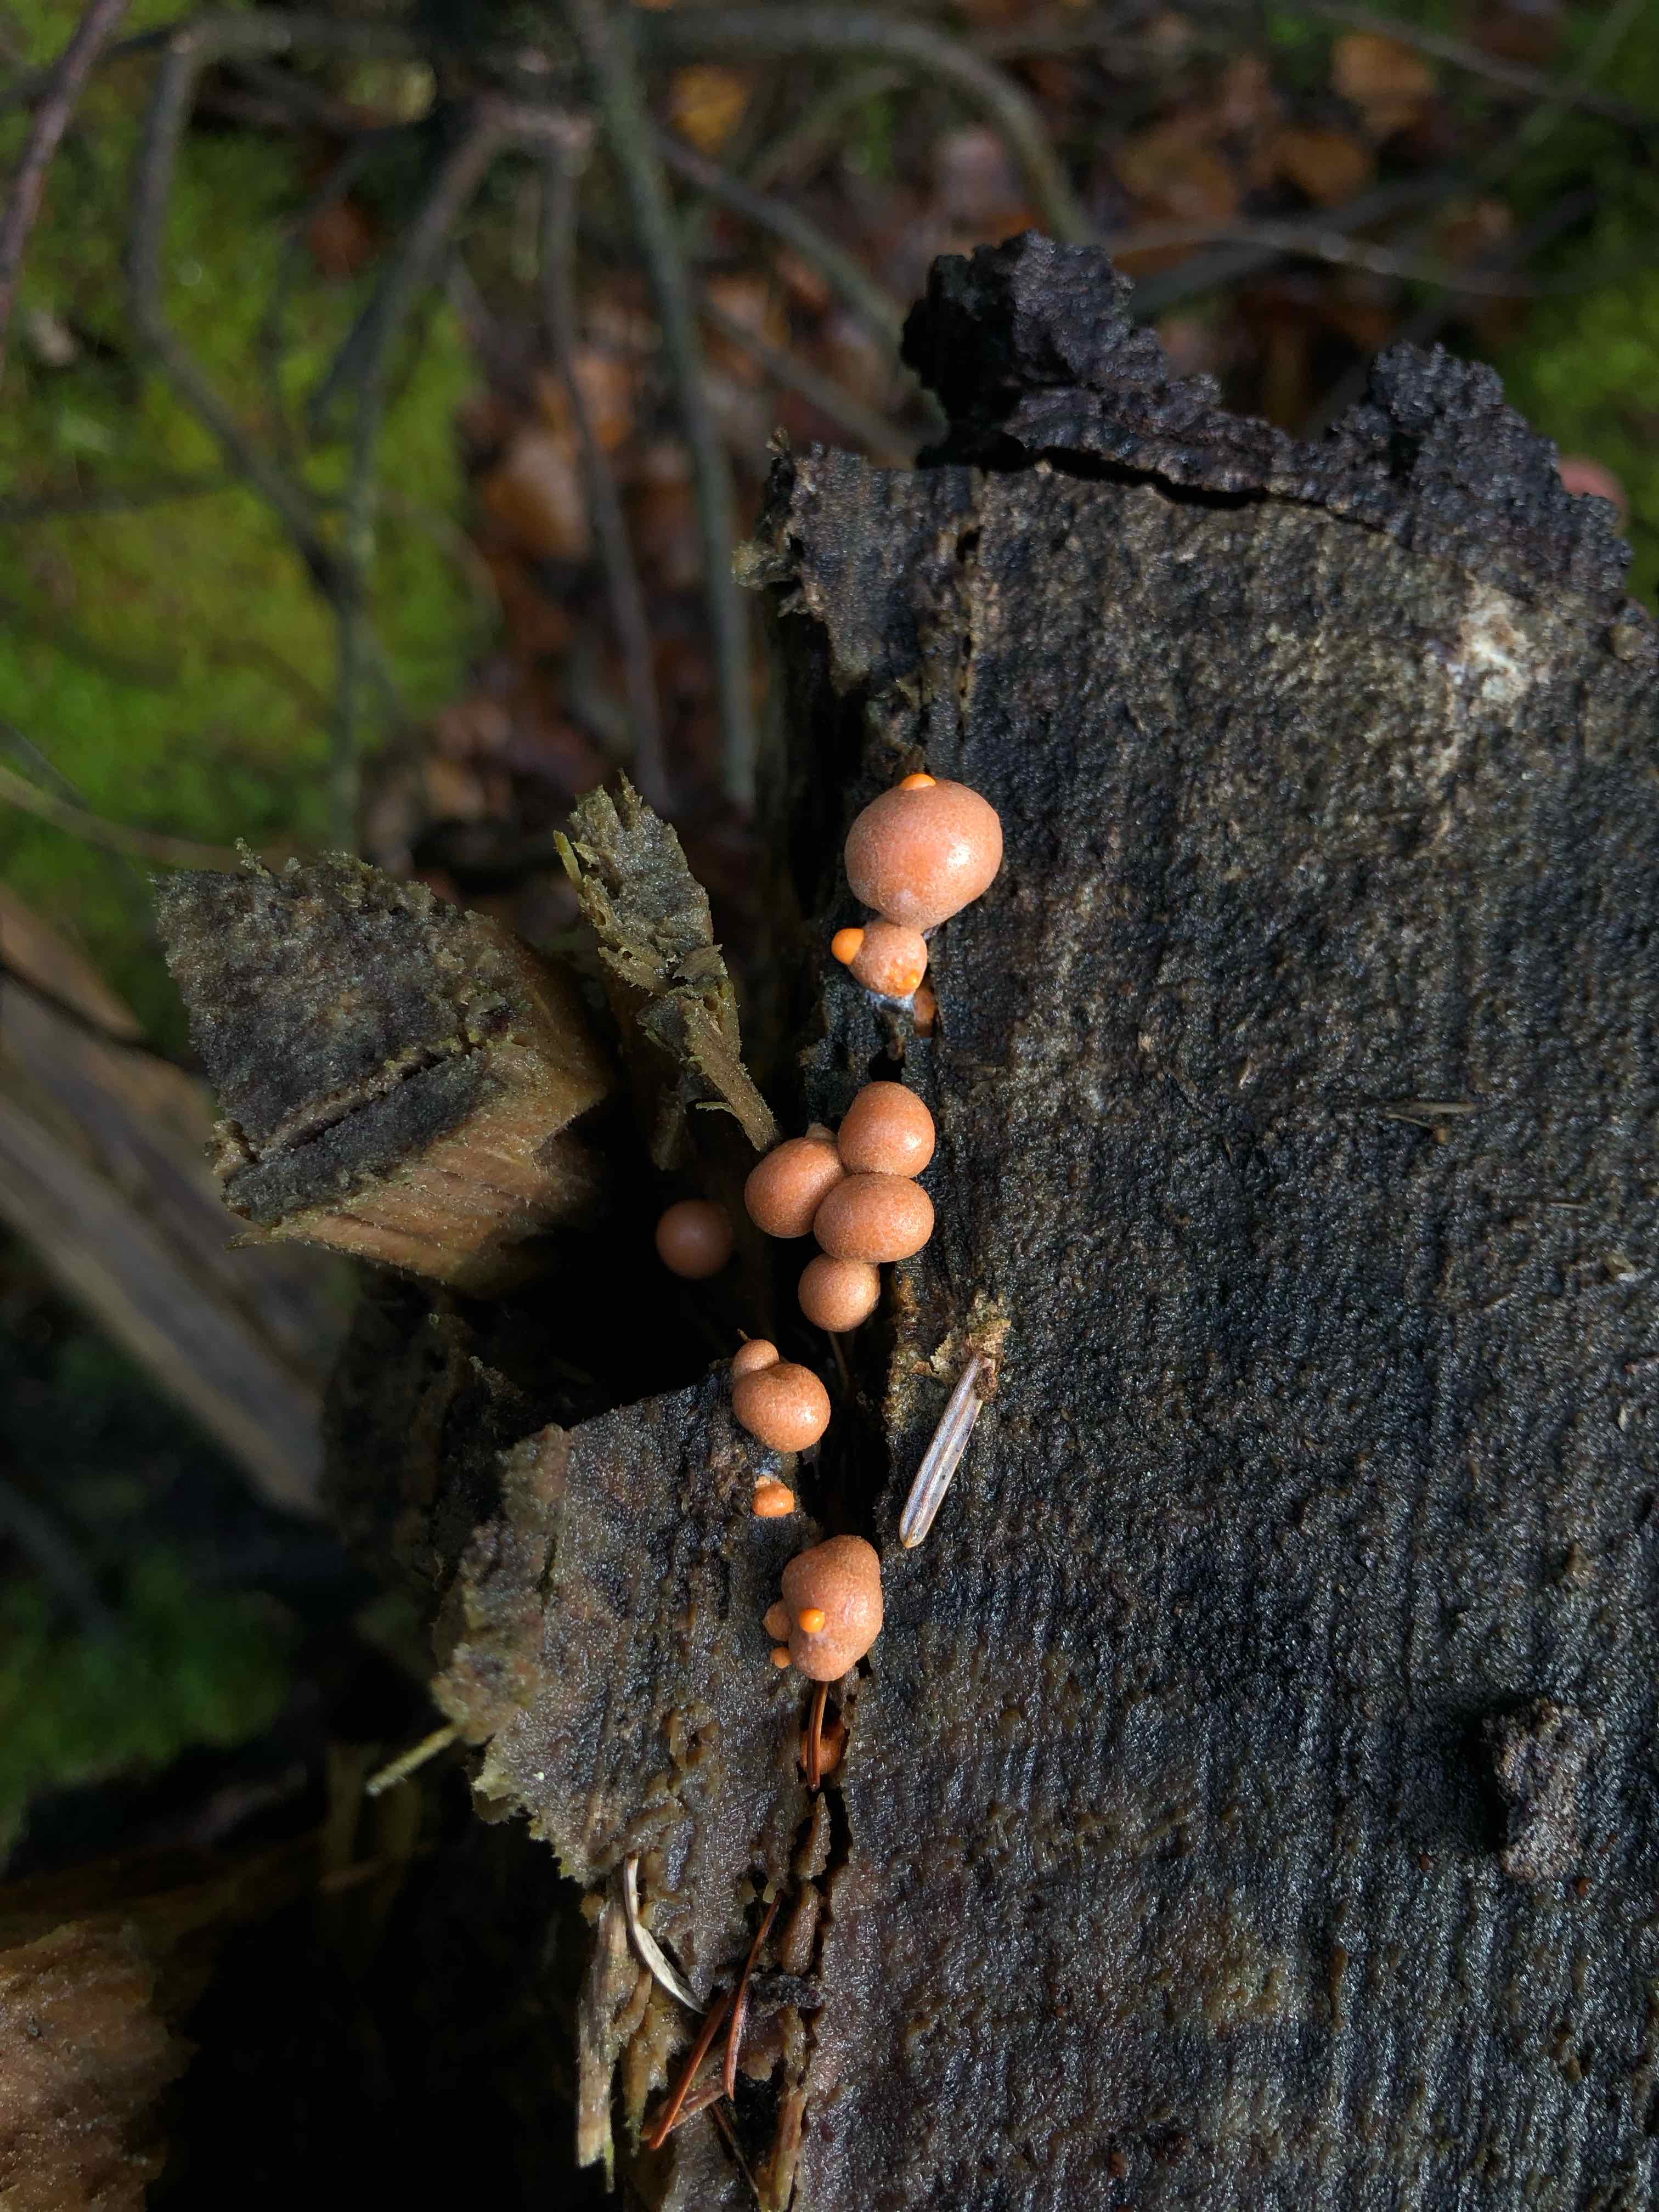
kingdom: Protozoa
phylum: Mycetozoa
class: Myxomycetes
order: Cribrariales
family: Tubiferaceae
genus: Lycogala
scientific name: Lycogala epidendrum
